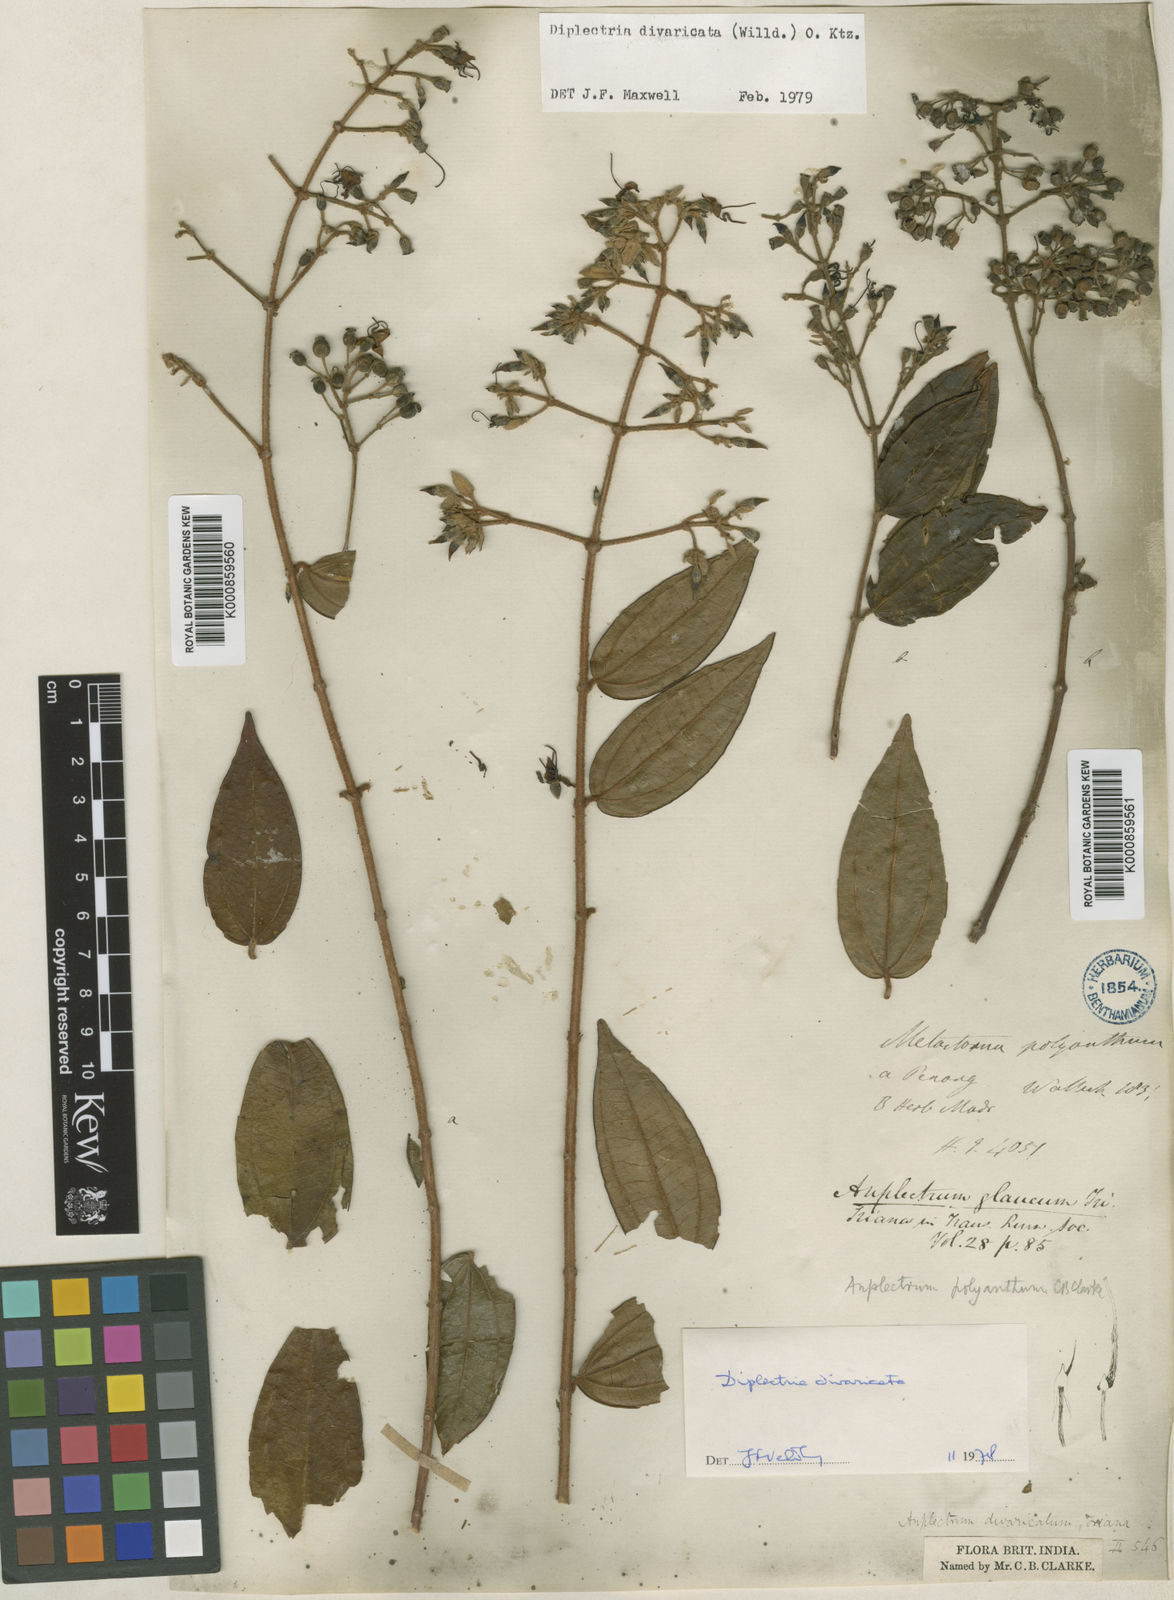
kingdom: Plantae
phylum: Tracheophyta
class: Magnoliopsida
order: Myrtales
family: Melastomataceae
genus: Diplectria
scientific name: Diplectria divaricata
